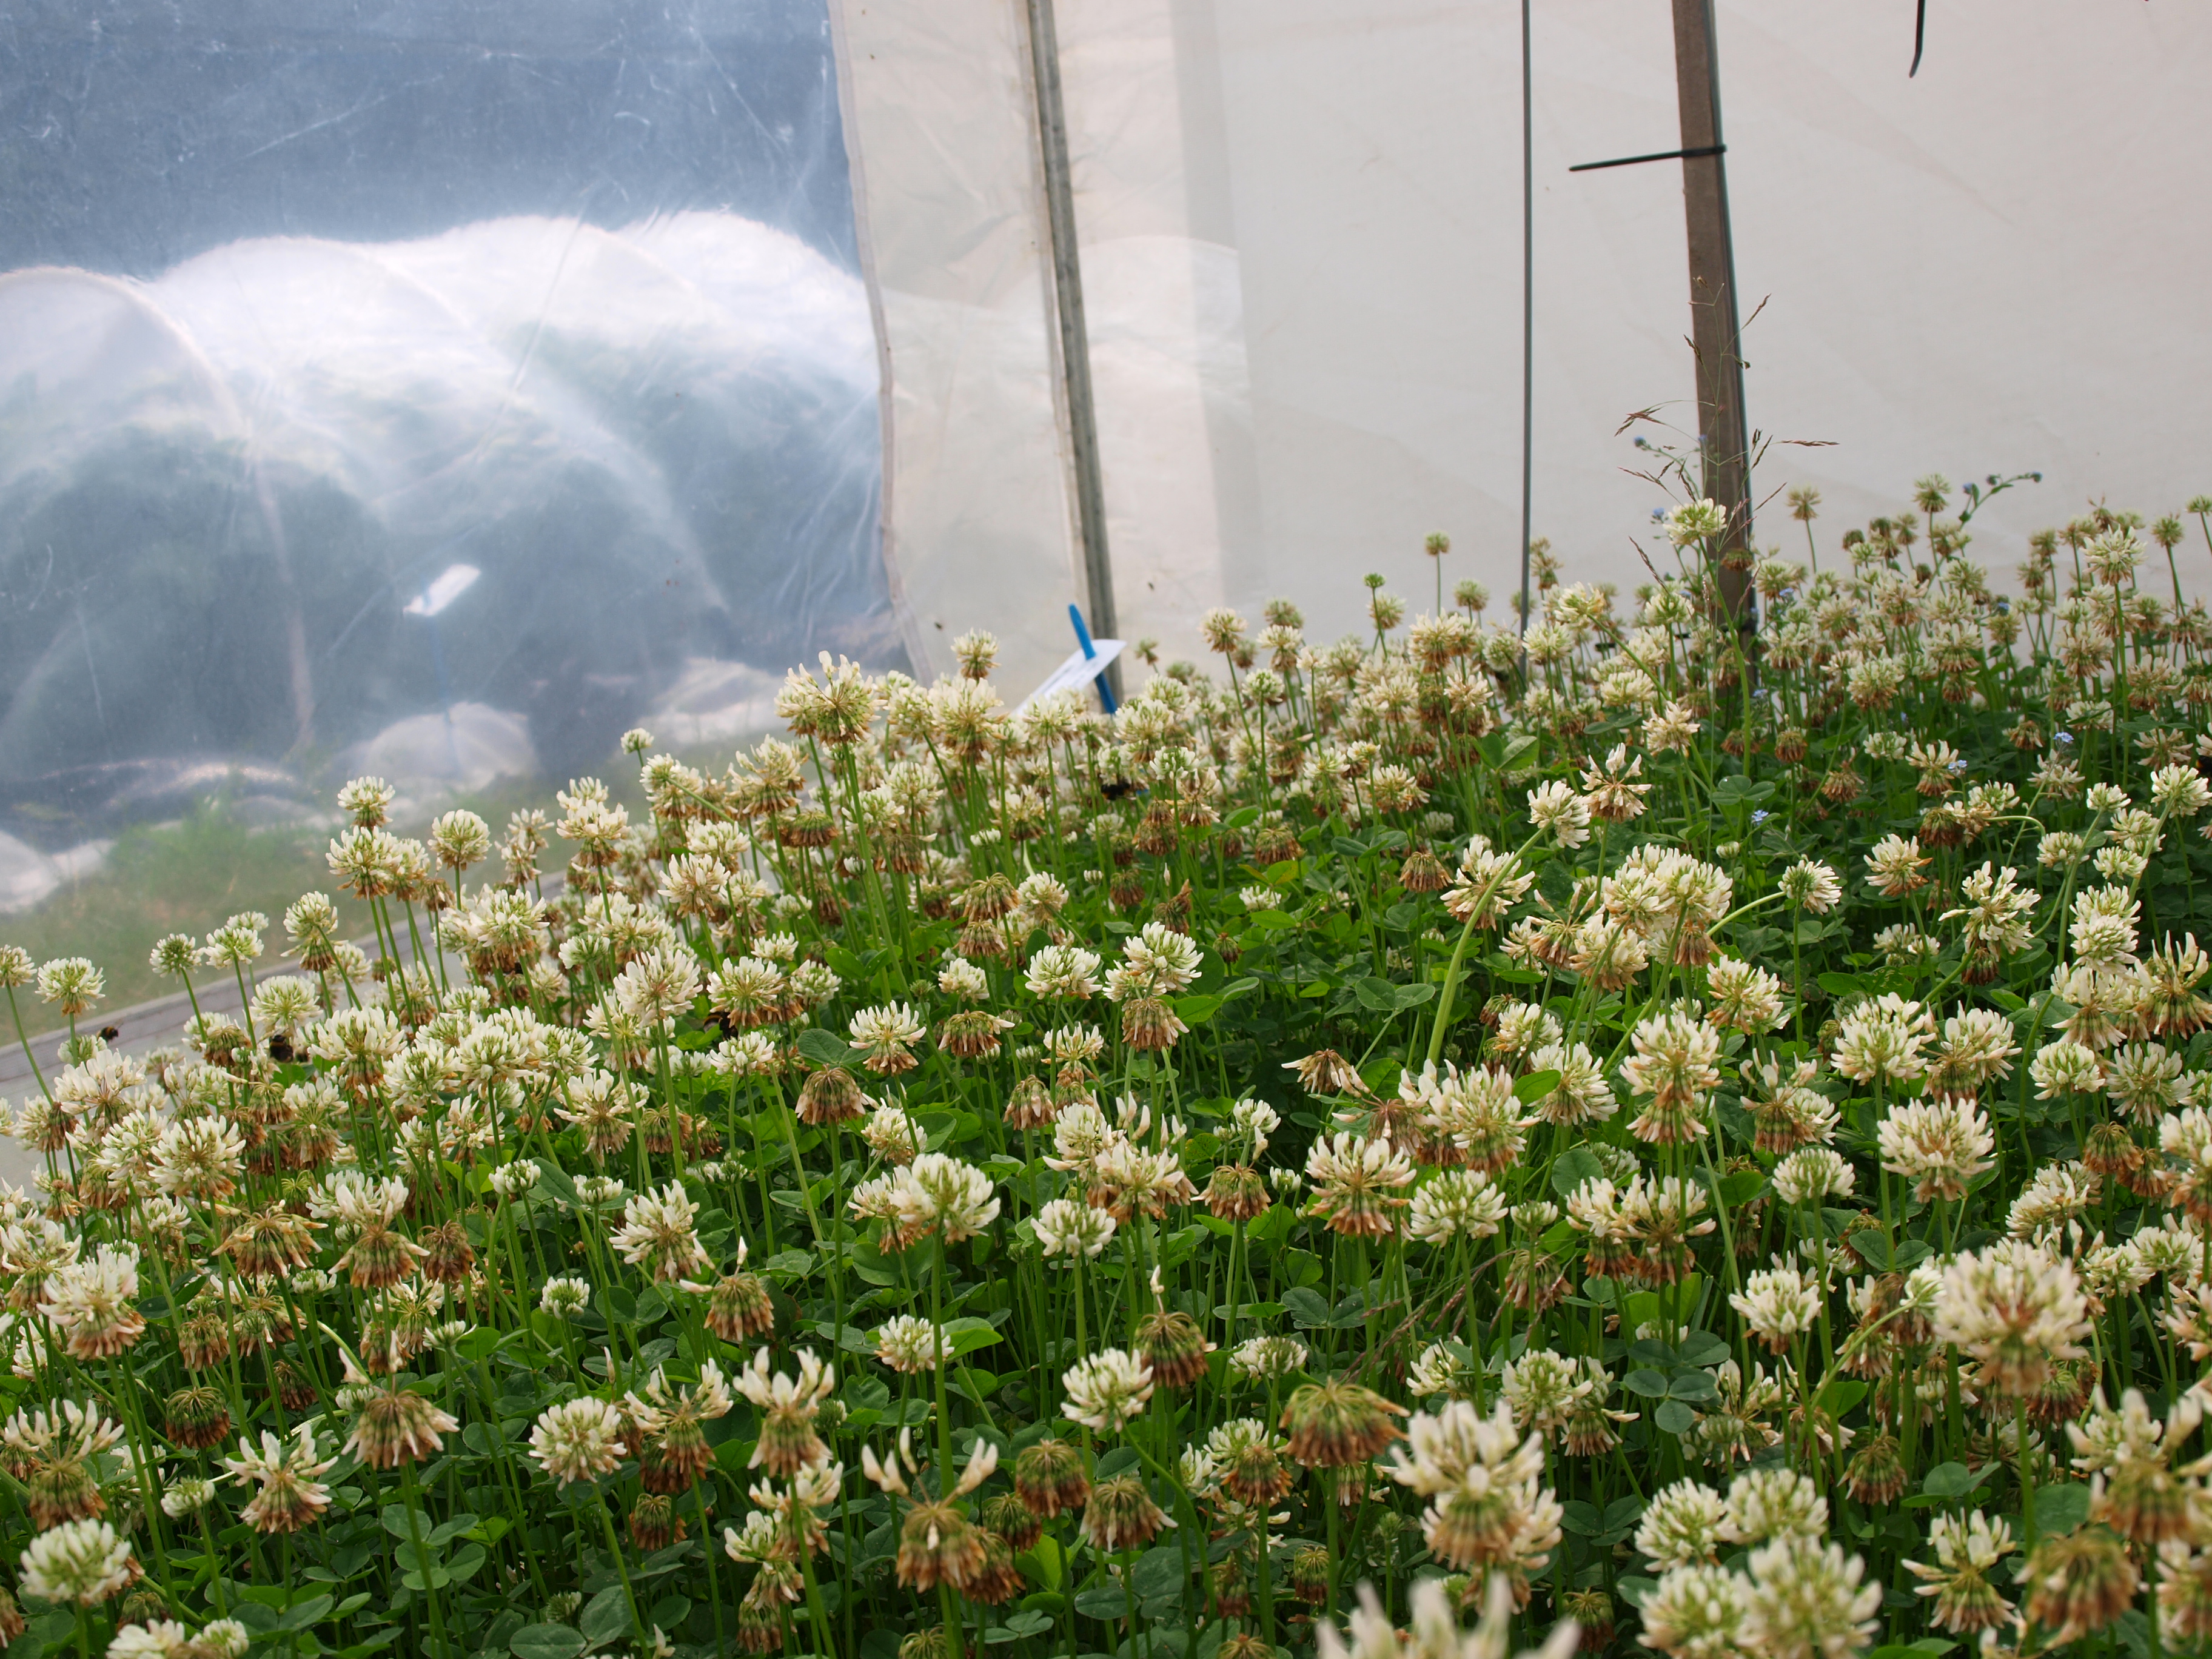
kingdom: Plantae
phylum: Tracheophyta
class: Magnoliopsida
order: Fabales
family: Fabaceae
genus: Trifolium
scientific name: Trifolium repens
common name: White clover
